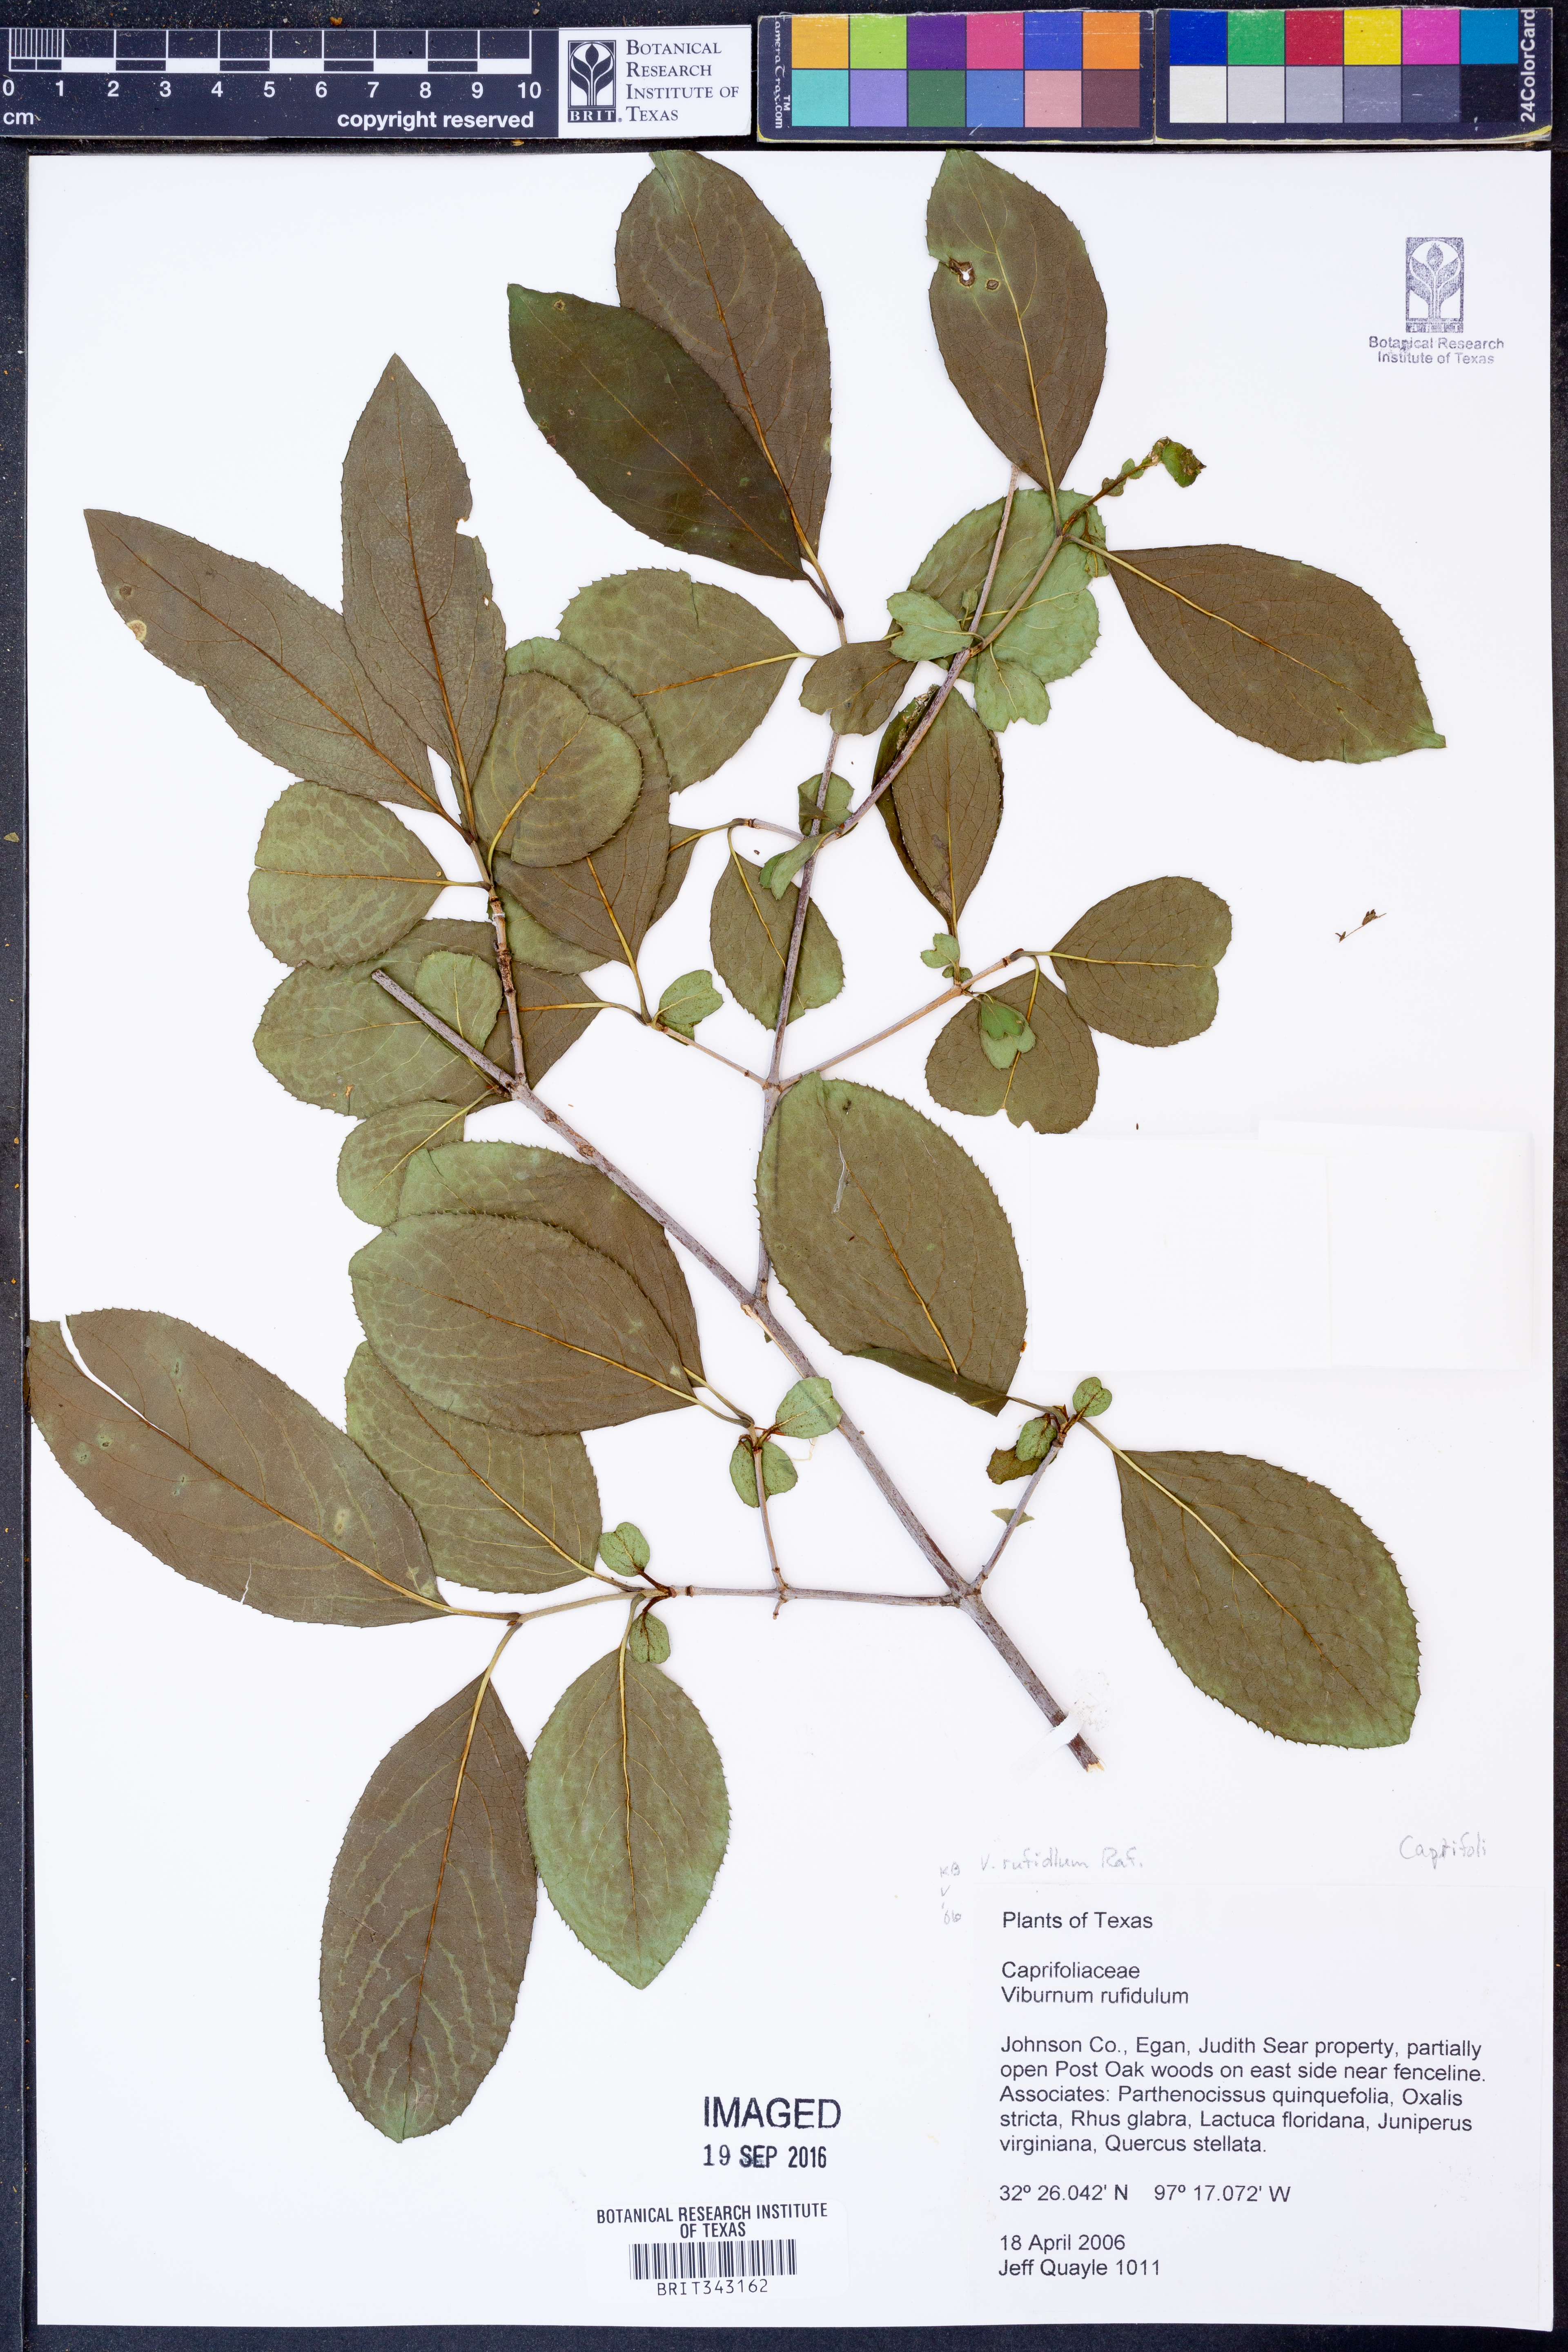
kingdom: Plantae
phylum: Tracheophyta
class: Magnoliopsida
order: Dipsacales
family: Viburnaceae
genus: Viburnum
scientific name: Viburnum rufidulum
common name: Blue haw
